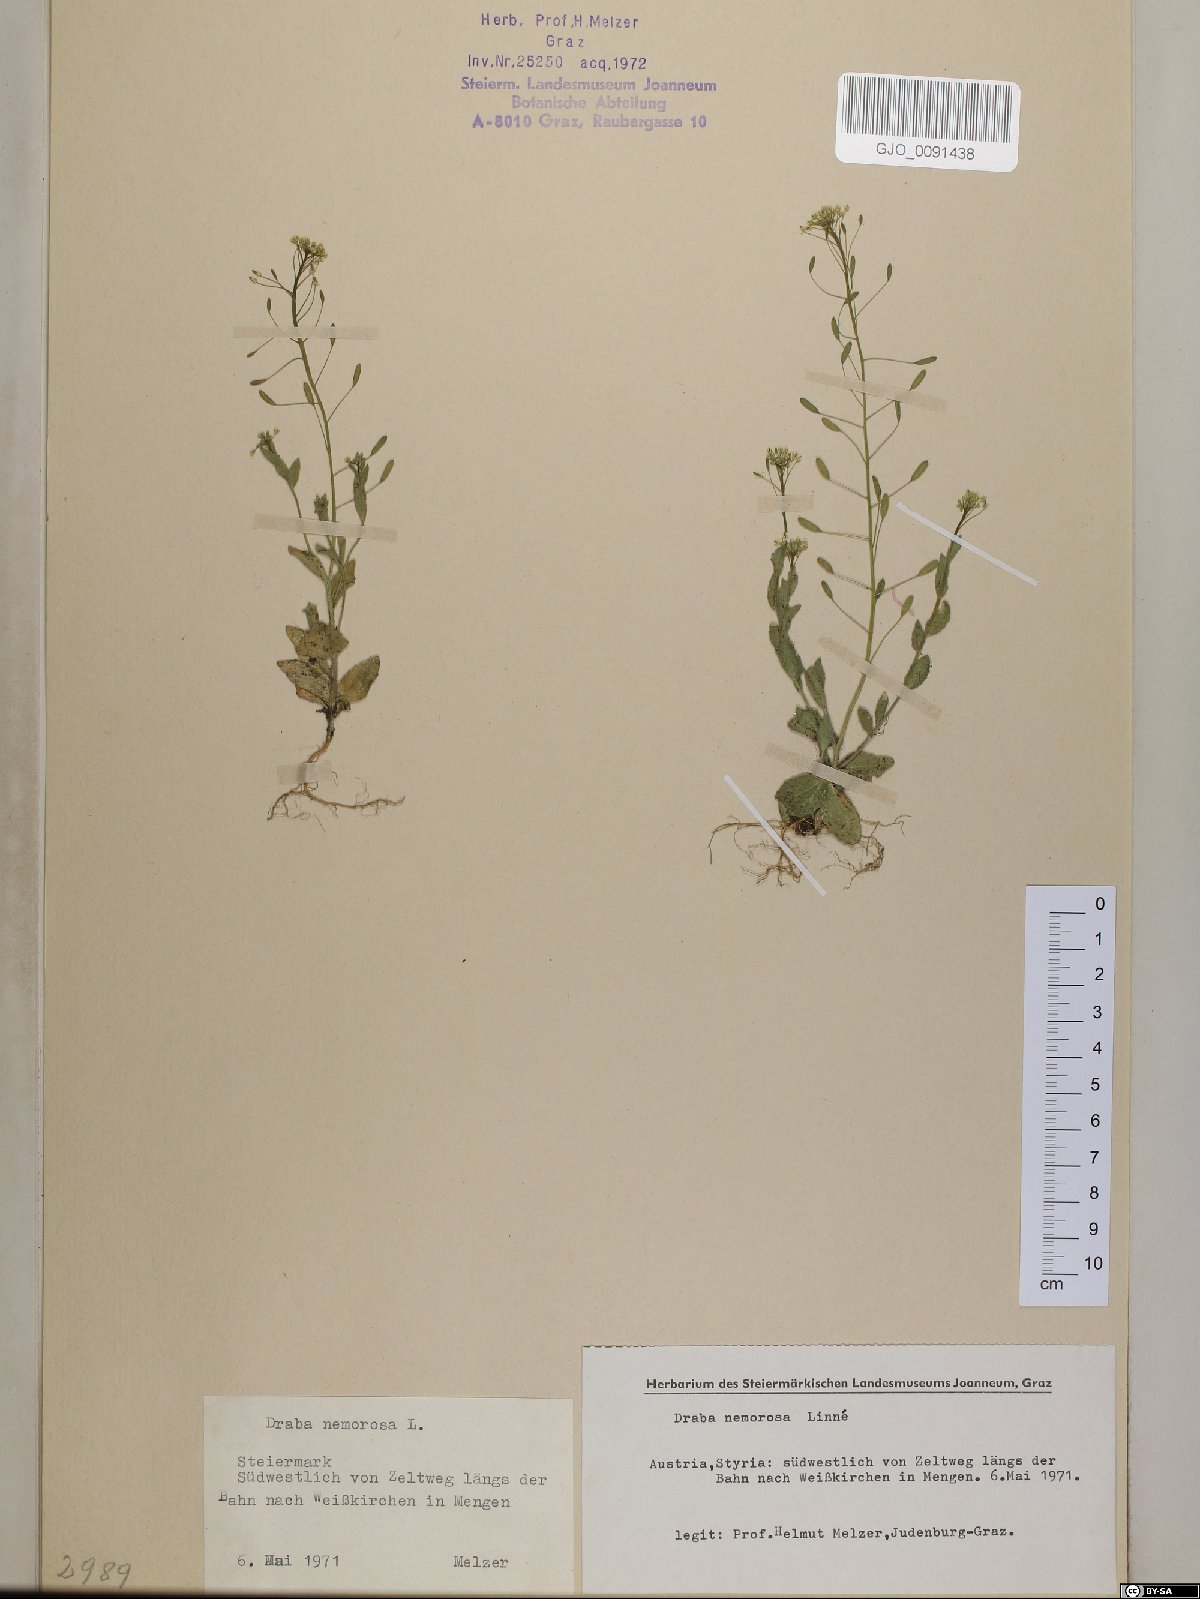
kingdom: Plantae
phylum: Tracheophyta
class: Magnoliopsida
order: Brassicales
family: Brassicaceae
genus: Draba
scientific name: Draba nemorosa
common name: Wood whitlow-grass
